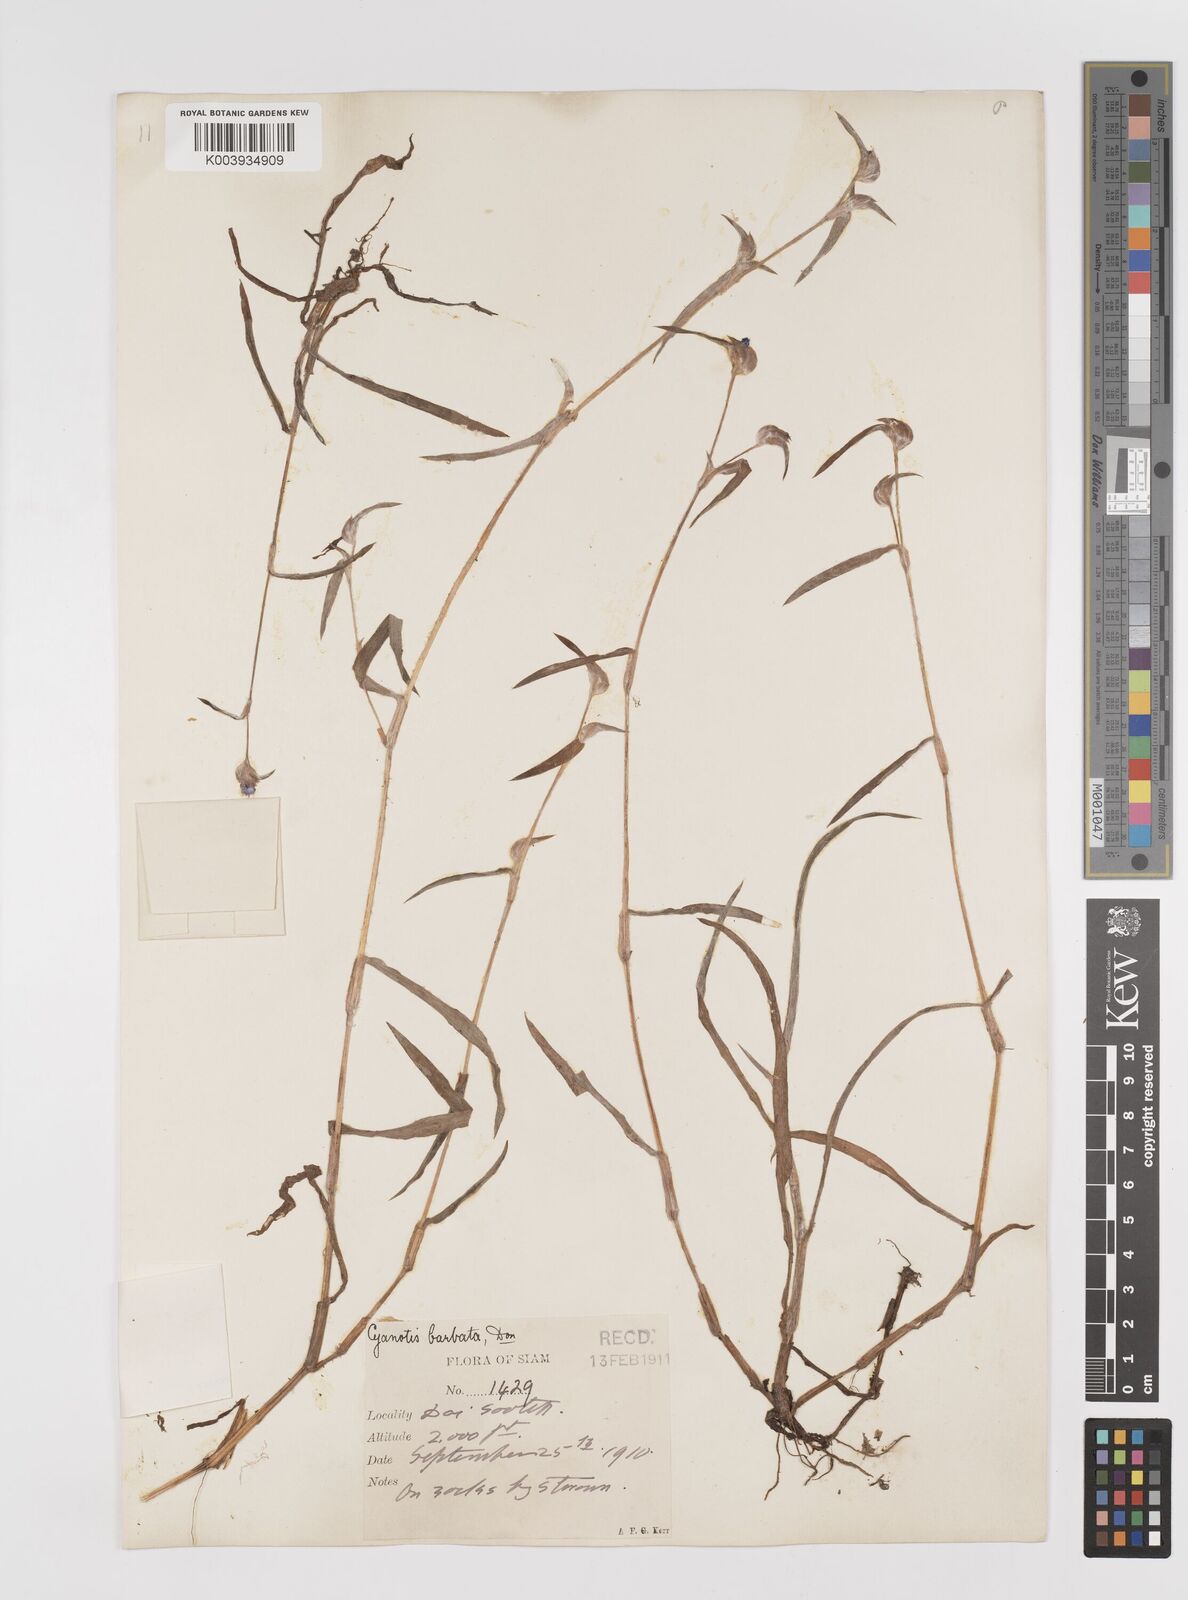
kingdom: Plantae
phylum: Tracheophyta
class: Liliopsida
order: Commelinales
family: Commelinaceae
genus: Cyanotis
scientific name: Cyanotis fasciculata
